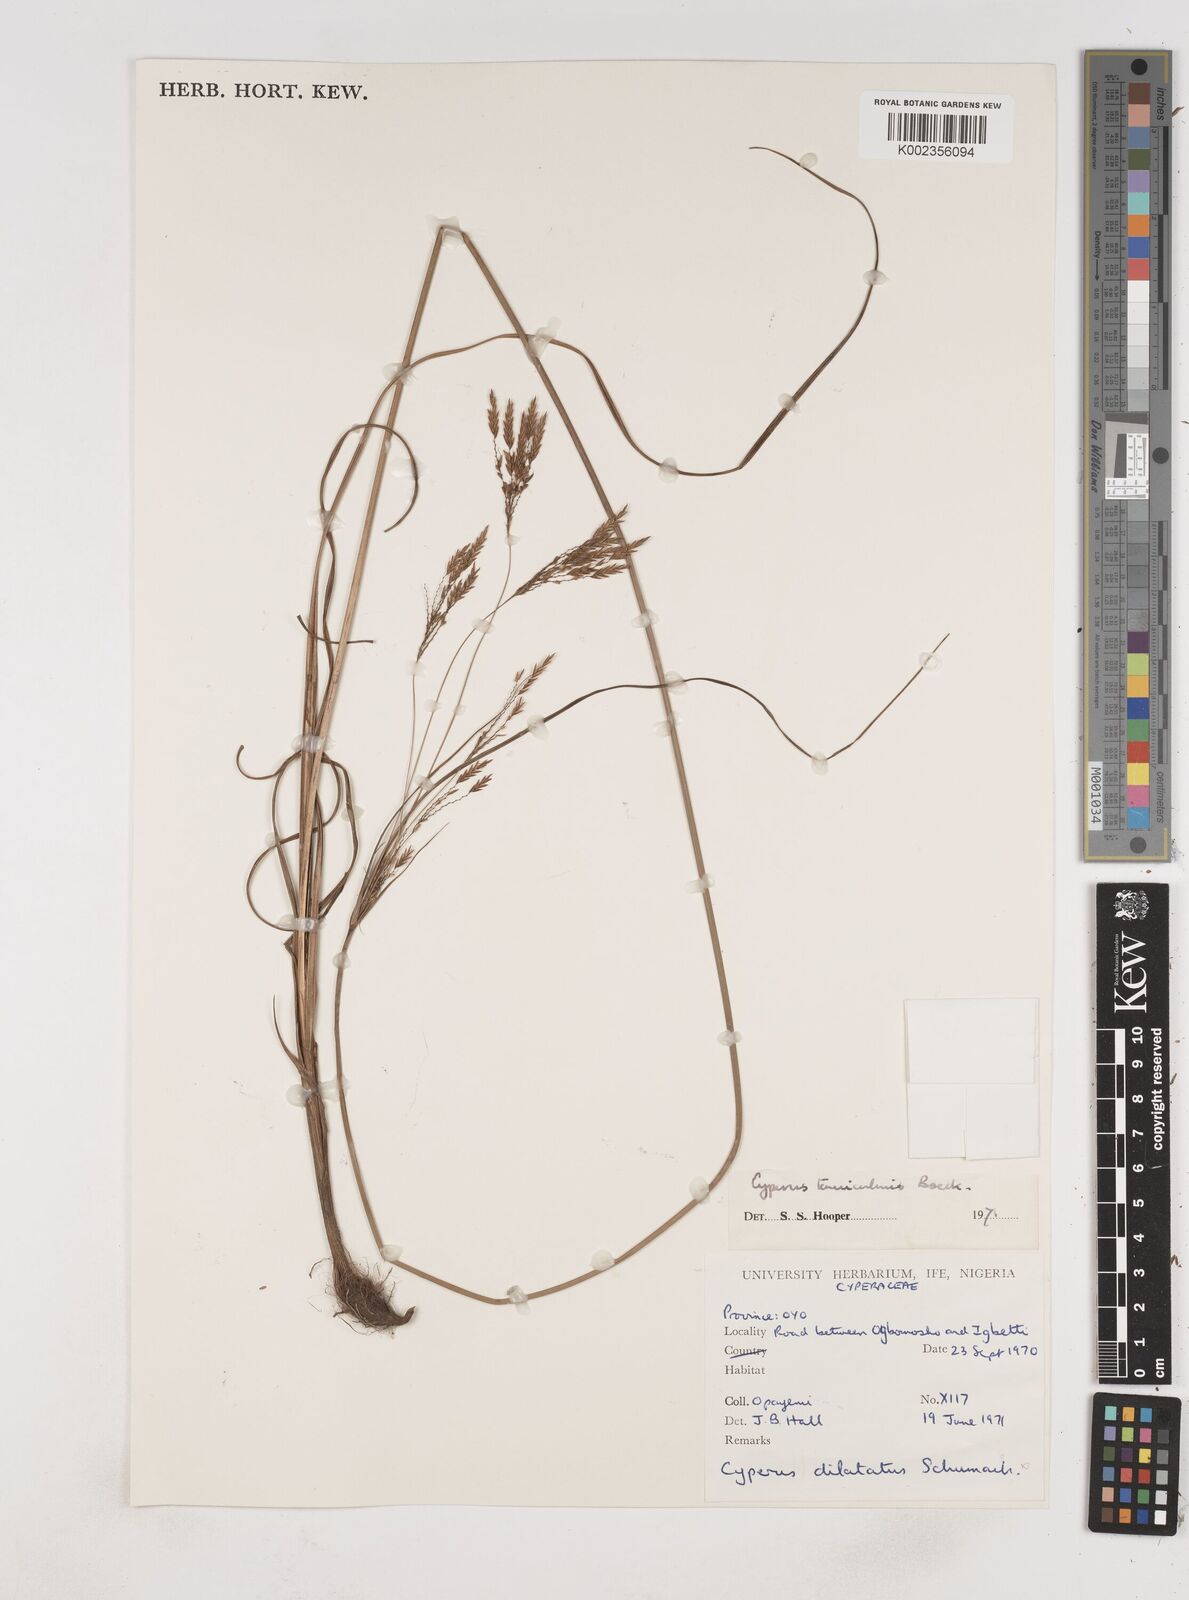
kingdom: Plantae
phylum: Tracheophyta
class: Liliopsida
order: Poales
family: Cyperaceae
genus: Cyperus
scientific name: Cyperus tenuiculmis
